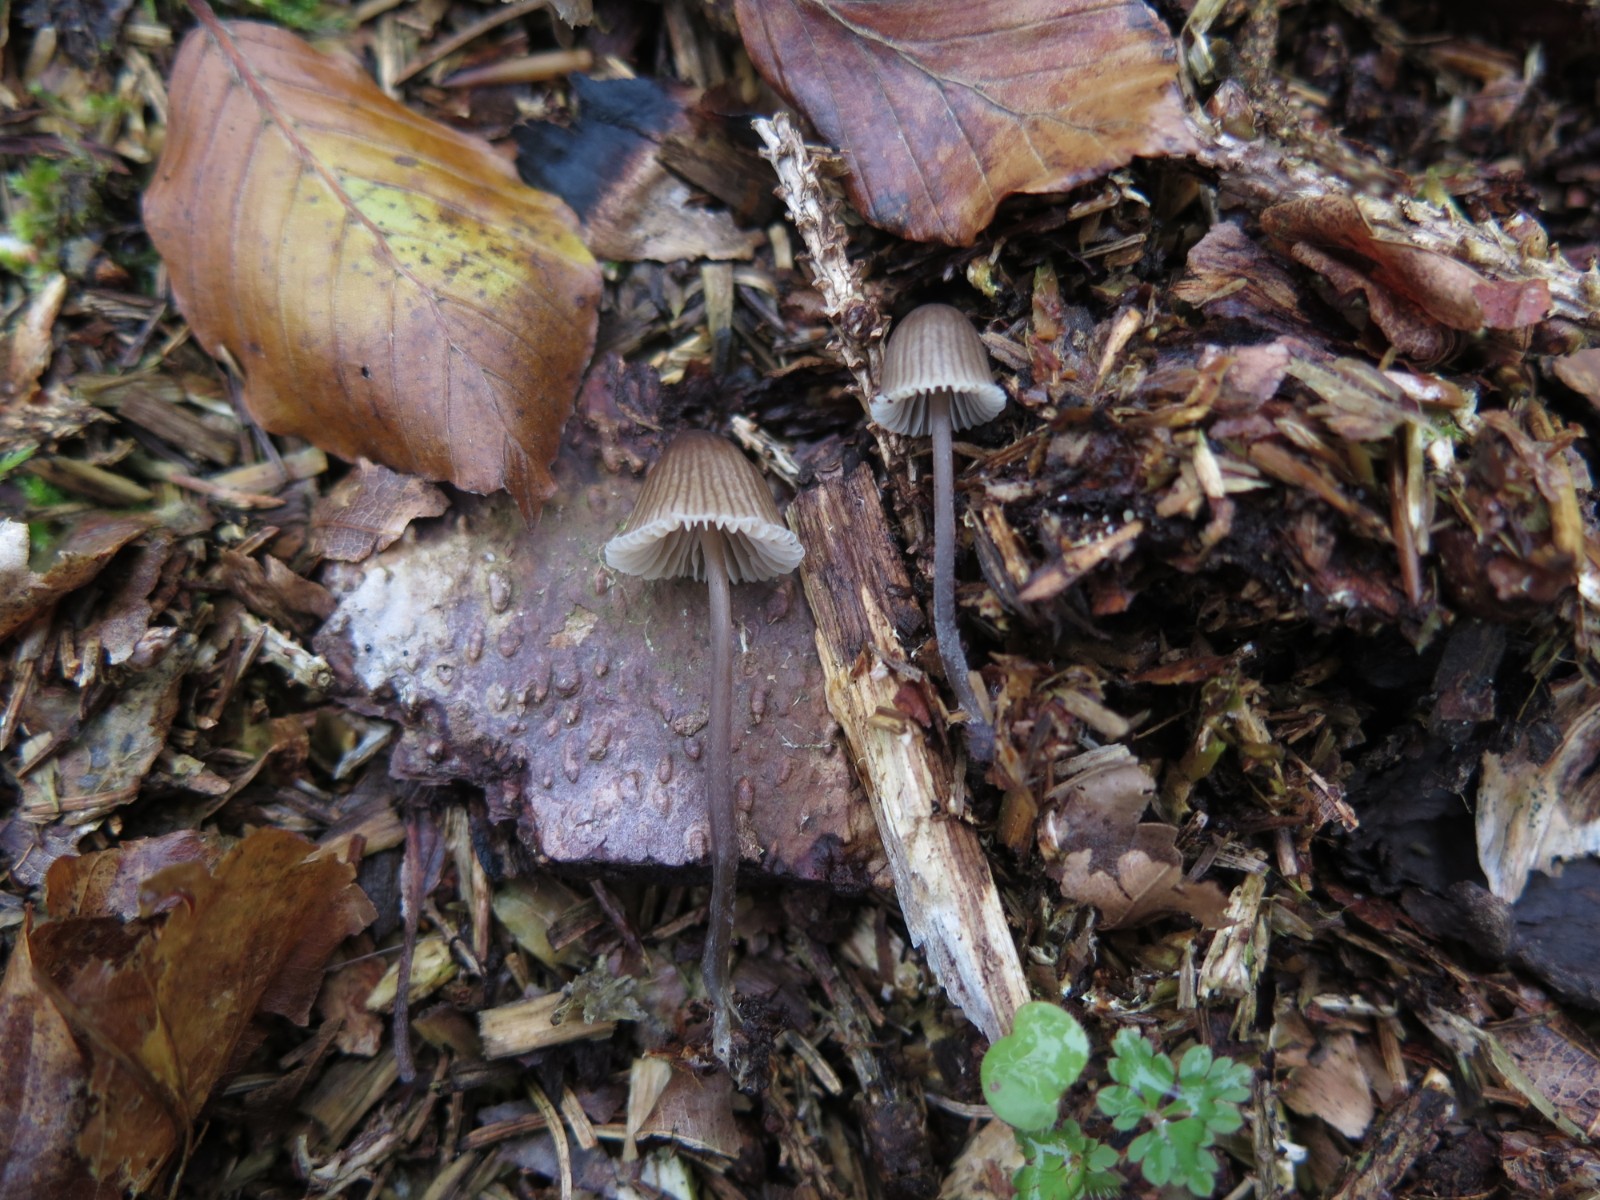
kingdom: Fungi
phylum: Basidiomycota
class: Agaricomycetes
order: Agaricales
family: Mycenaceae
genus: Mycena
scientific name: Mycena galopus
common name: hvidmælket huesvamp
